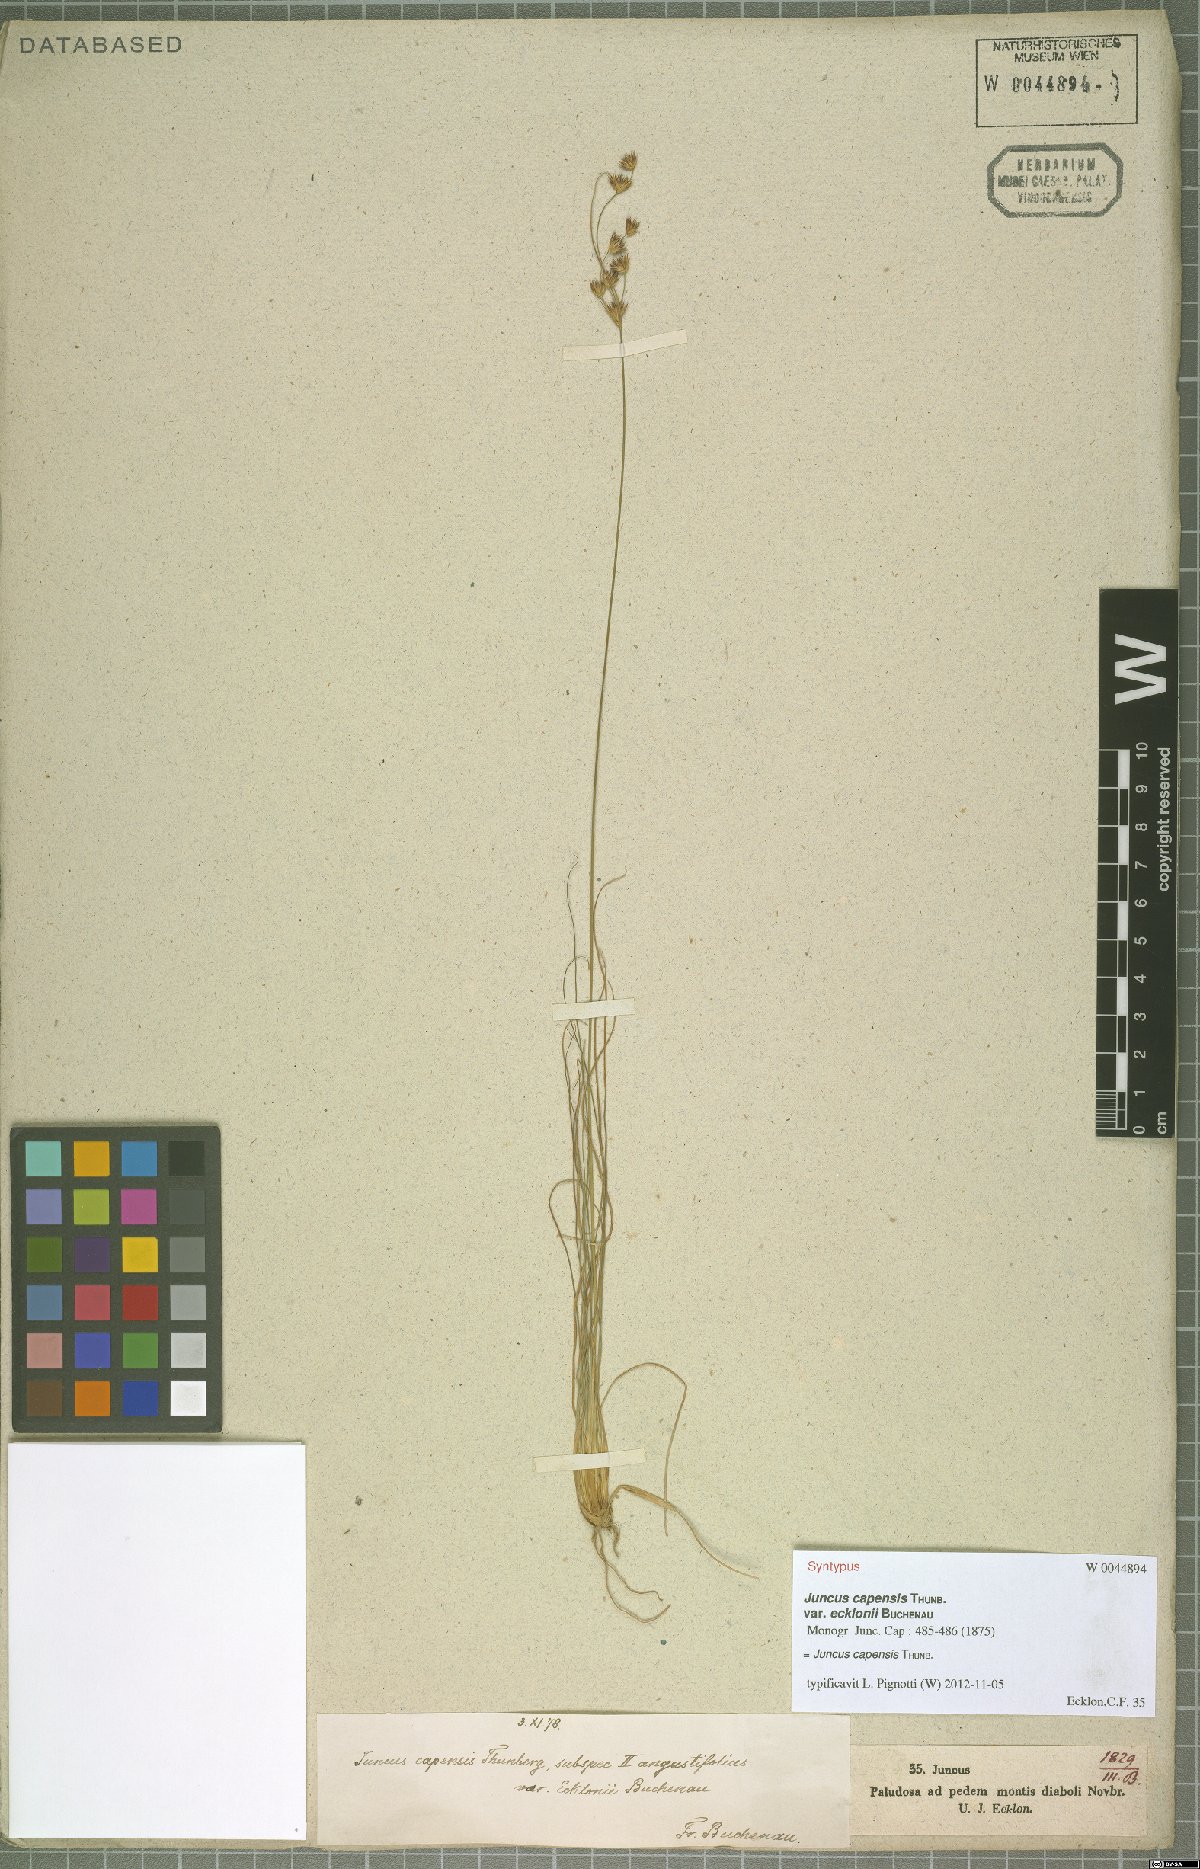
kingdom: Plantae
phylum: Tracheophyta
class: Liliopsida
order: Poales
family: Juncaceae
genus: Juncus
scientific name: Juncus capensis
